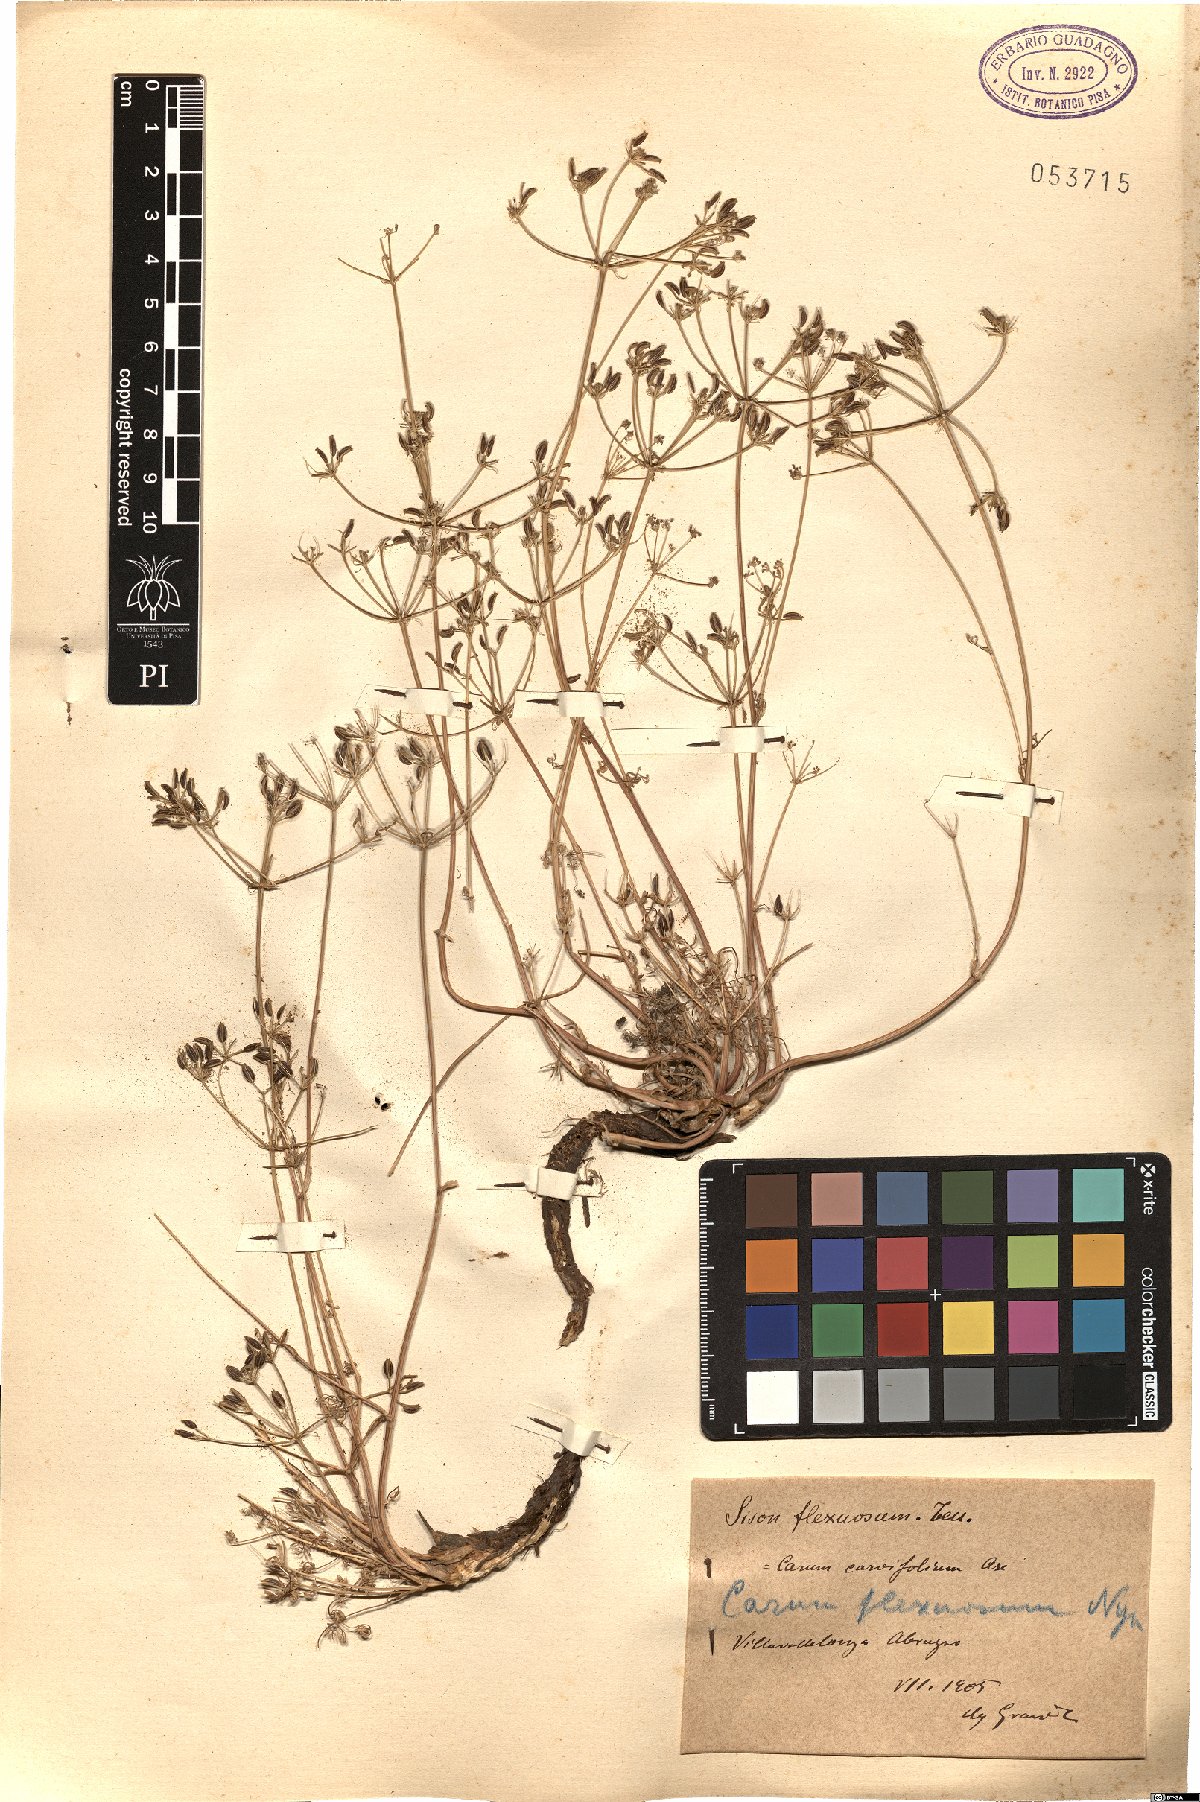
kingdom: Plantae
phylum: Tracheophyta
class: Magnoliopsida
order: Apiales
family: Apiaceae
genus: Selinum
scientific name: Selinum carvifolia
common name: Cambridge milk-parsley
